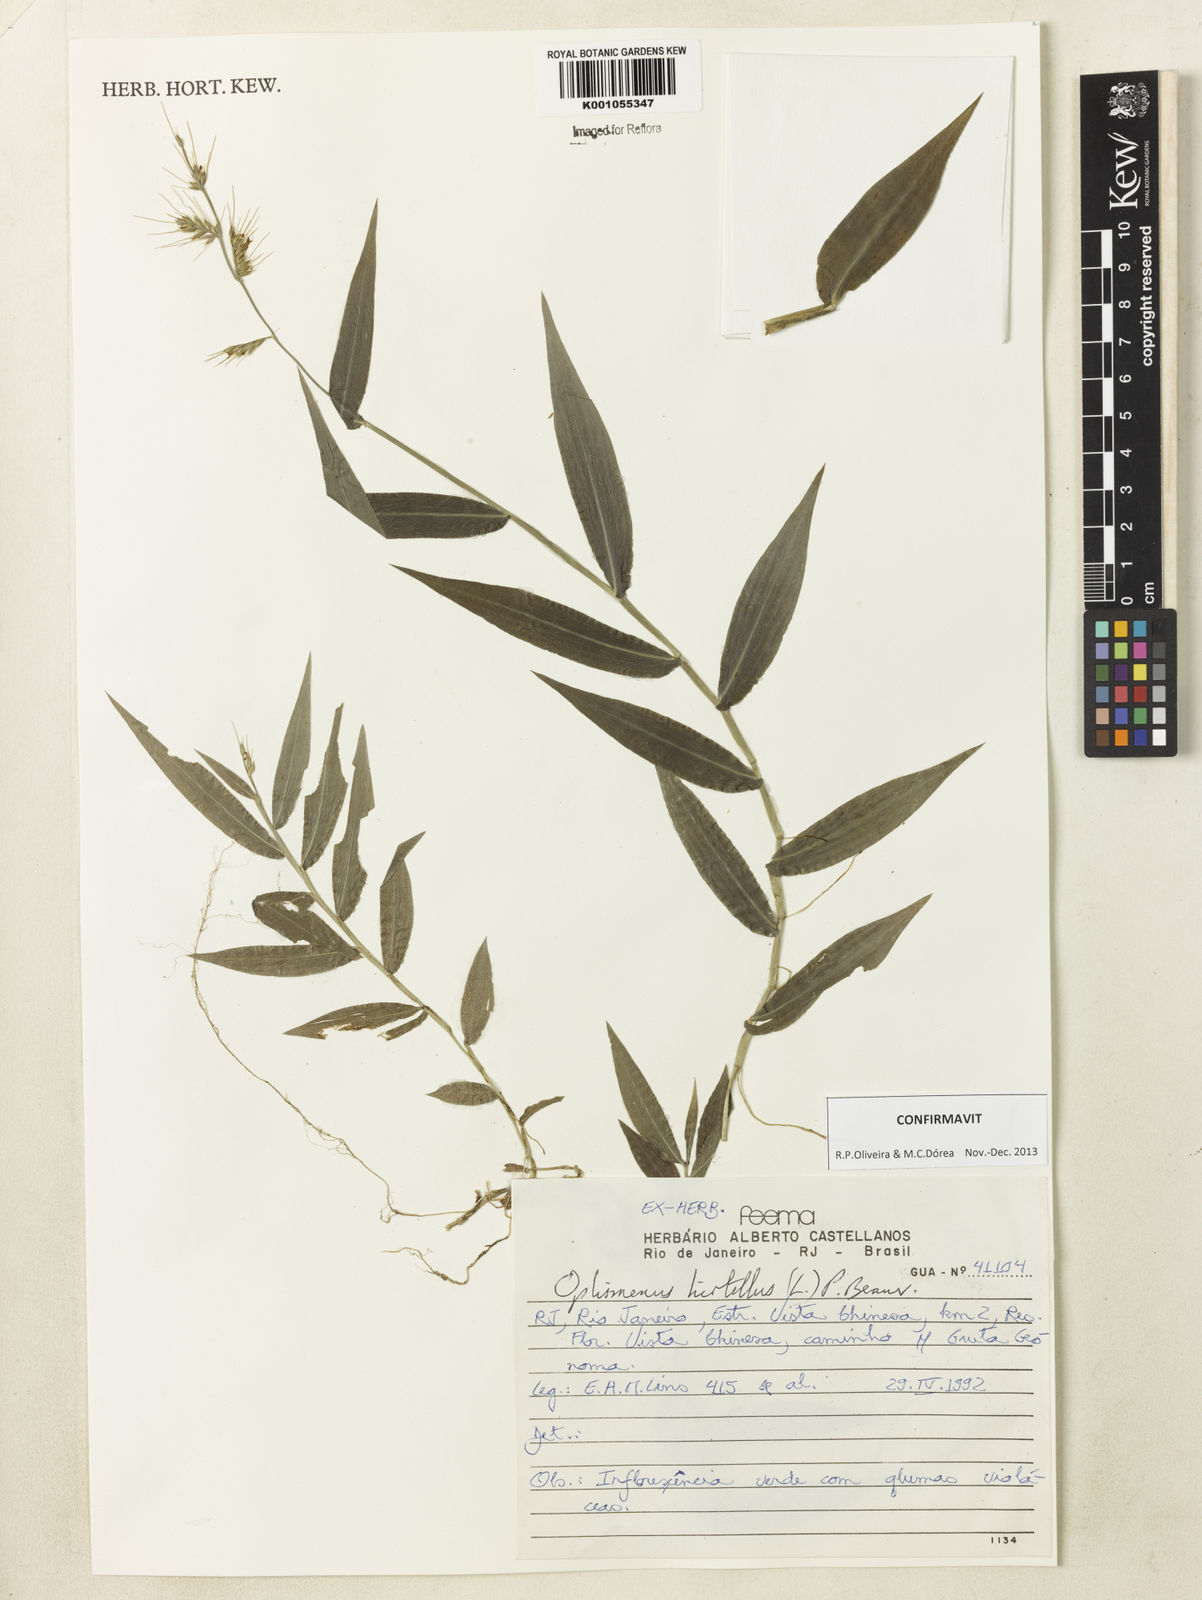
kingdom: Plantae
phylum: Tracheophyta
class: Liliopsida
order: Poales
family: Poaceae
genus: Oplismenus
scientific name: Oplismenus hirtellus
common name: Basketgrass
